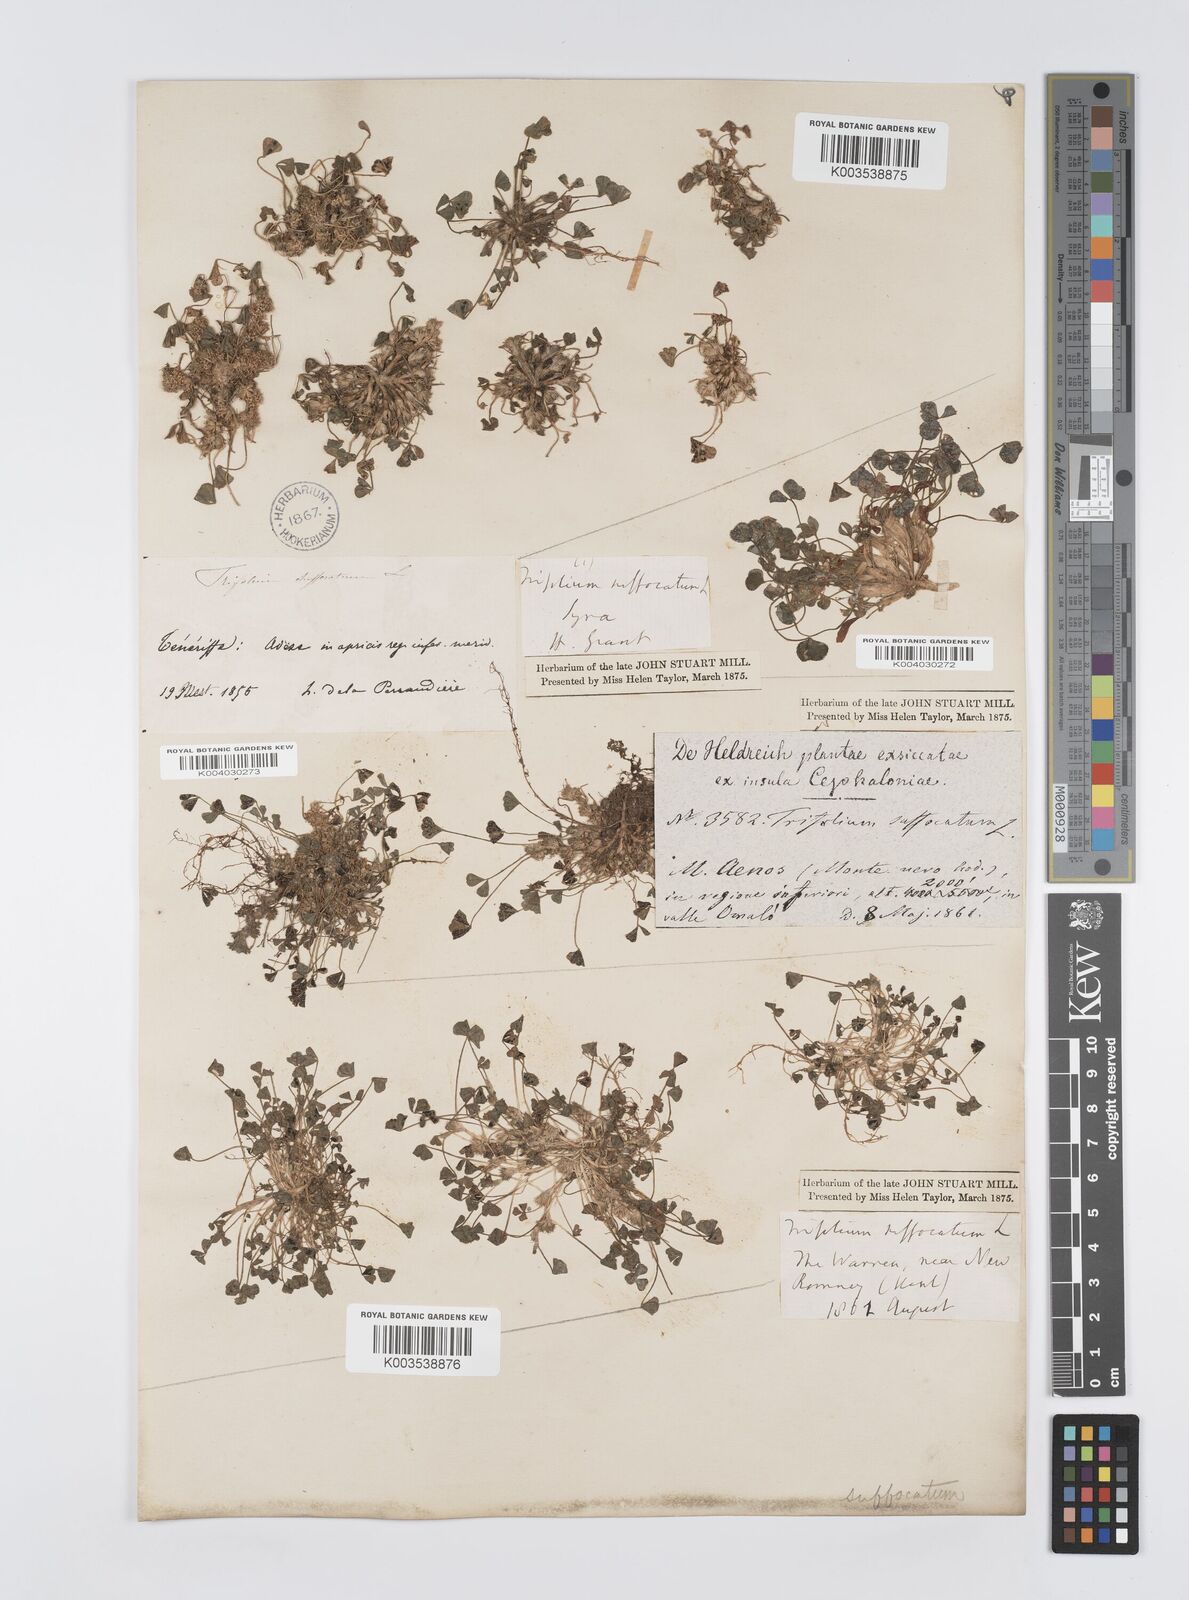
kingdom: Plantae
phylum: Tracheophyta
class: Magnoliopsida
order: Fabales
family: Fabaceae
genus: Trifolium
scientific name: Trifolium suffocatum
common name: Suffocated clover
